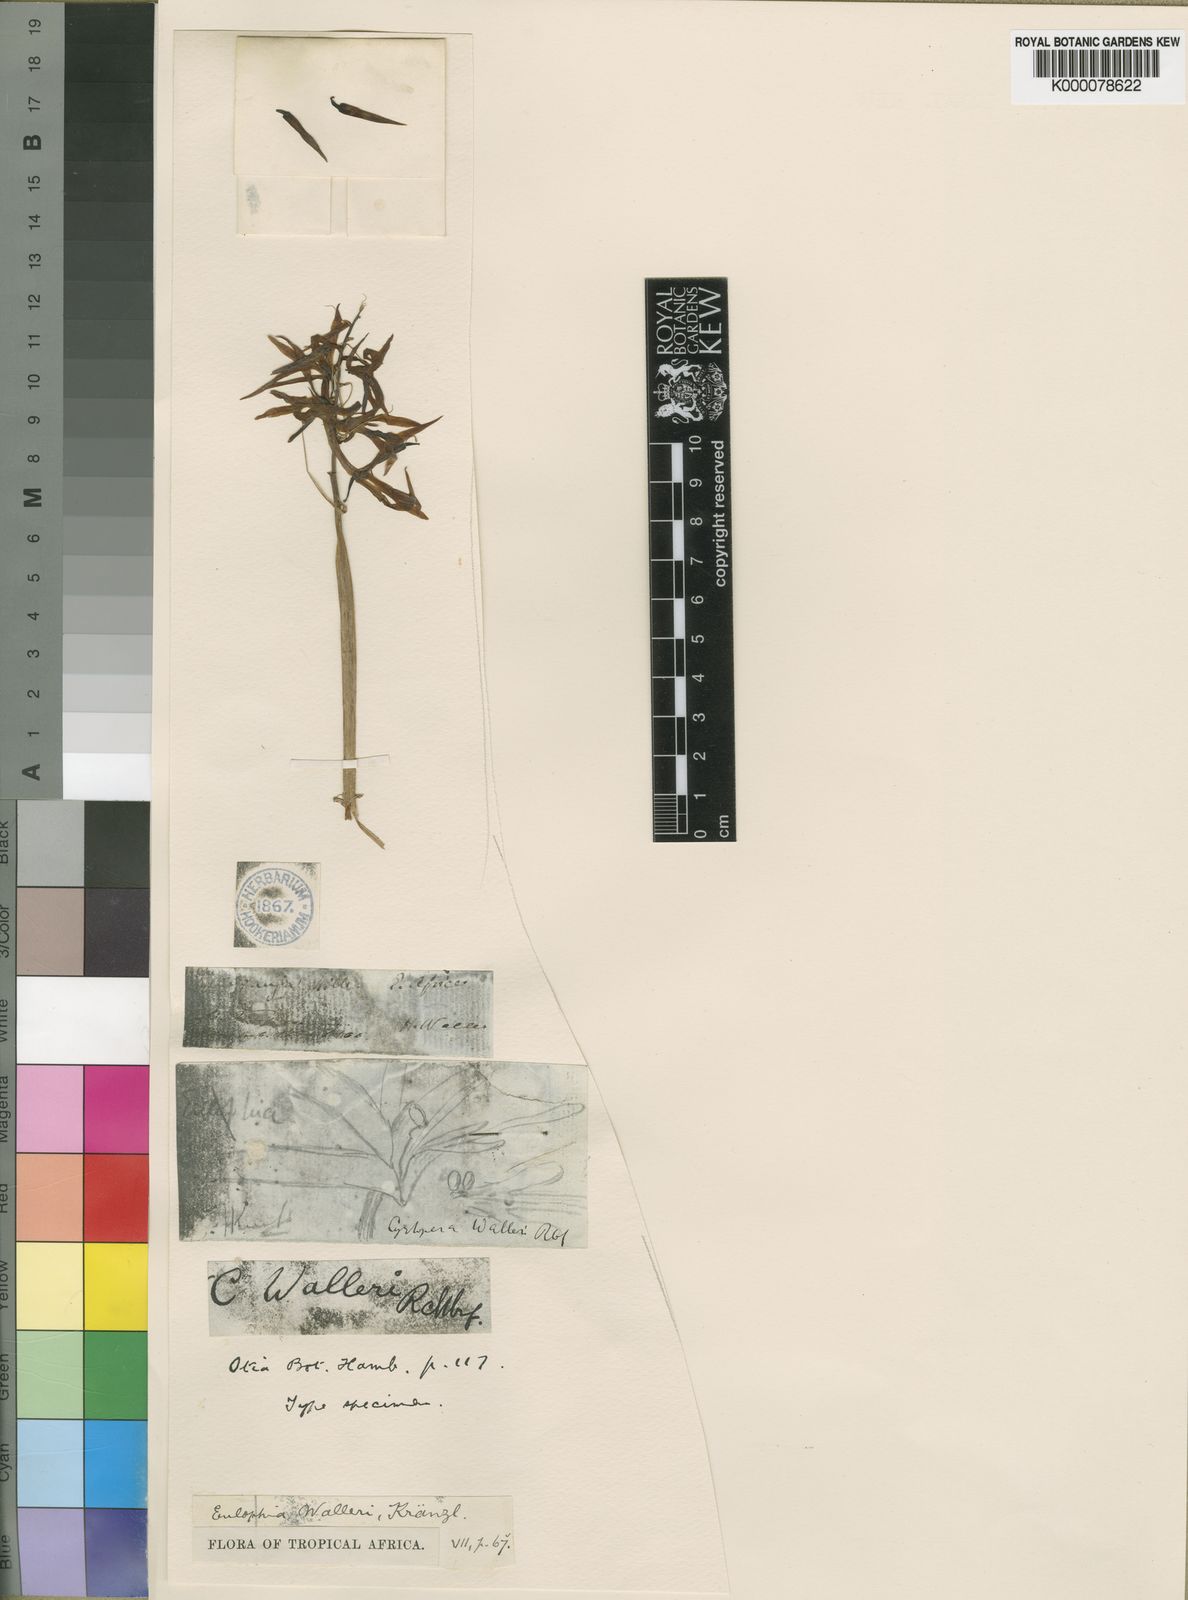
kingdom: Plantae
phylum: Tracheophyta
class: Liliopsida
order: Asparagales
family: Orchidaceae
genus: Eulophia
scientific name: Eulophia walleri
